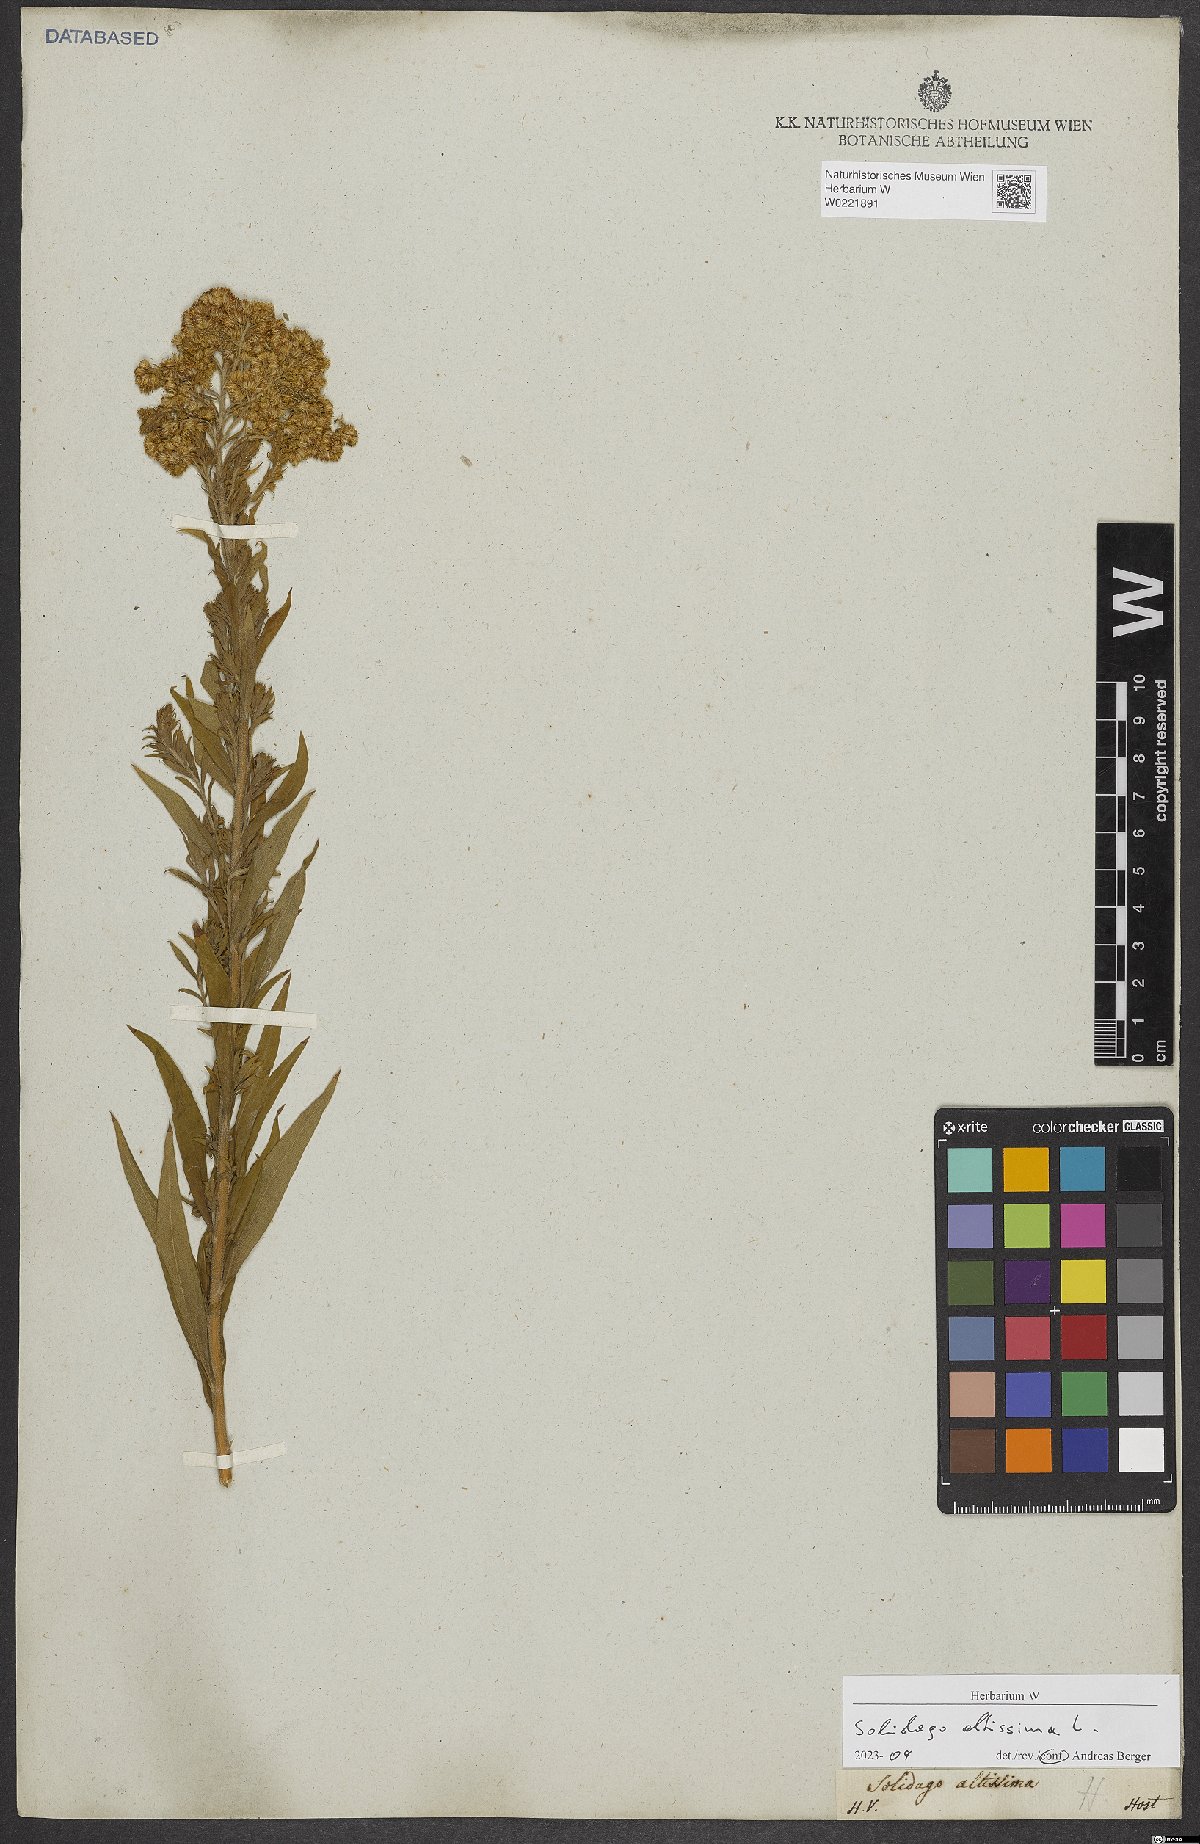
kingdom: Plantae
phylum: Tracheophyta
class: Magnoliopsida
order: Asterales
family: Asteraceae
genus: Solidago
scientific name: Solidago altissima
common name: Late goldenrod
